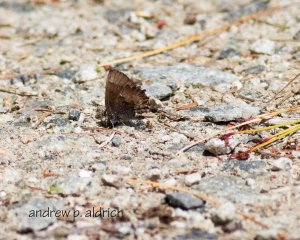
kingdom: Animalia
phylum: Arthropoda
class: Insecta
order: Lepidoptera
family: Lycaenidae
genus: Incisalia
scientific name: Incisalia henrici
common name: Henry's Elfin
